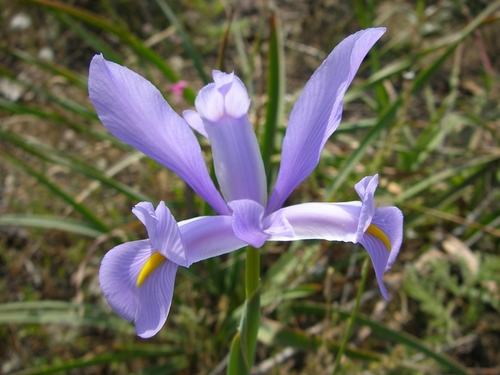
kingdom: Plantae
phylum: Tracheophyta
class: Liliopsida
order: Asparagales
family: Iridaceae
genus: Iris
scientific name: Iris xiphium
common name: Spanish iris
